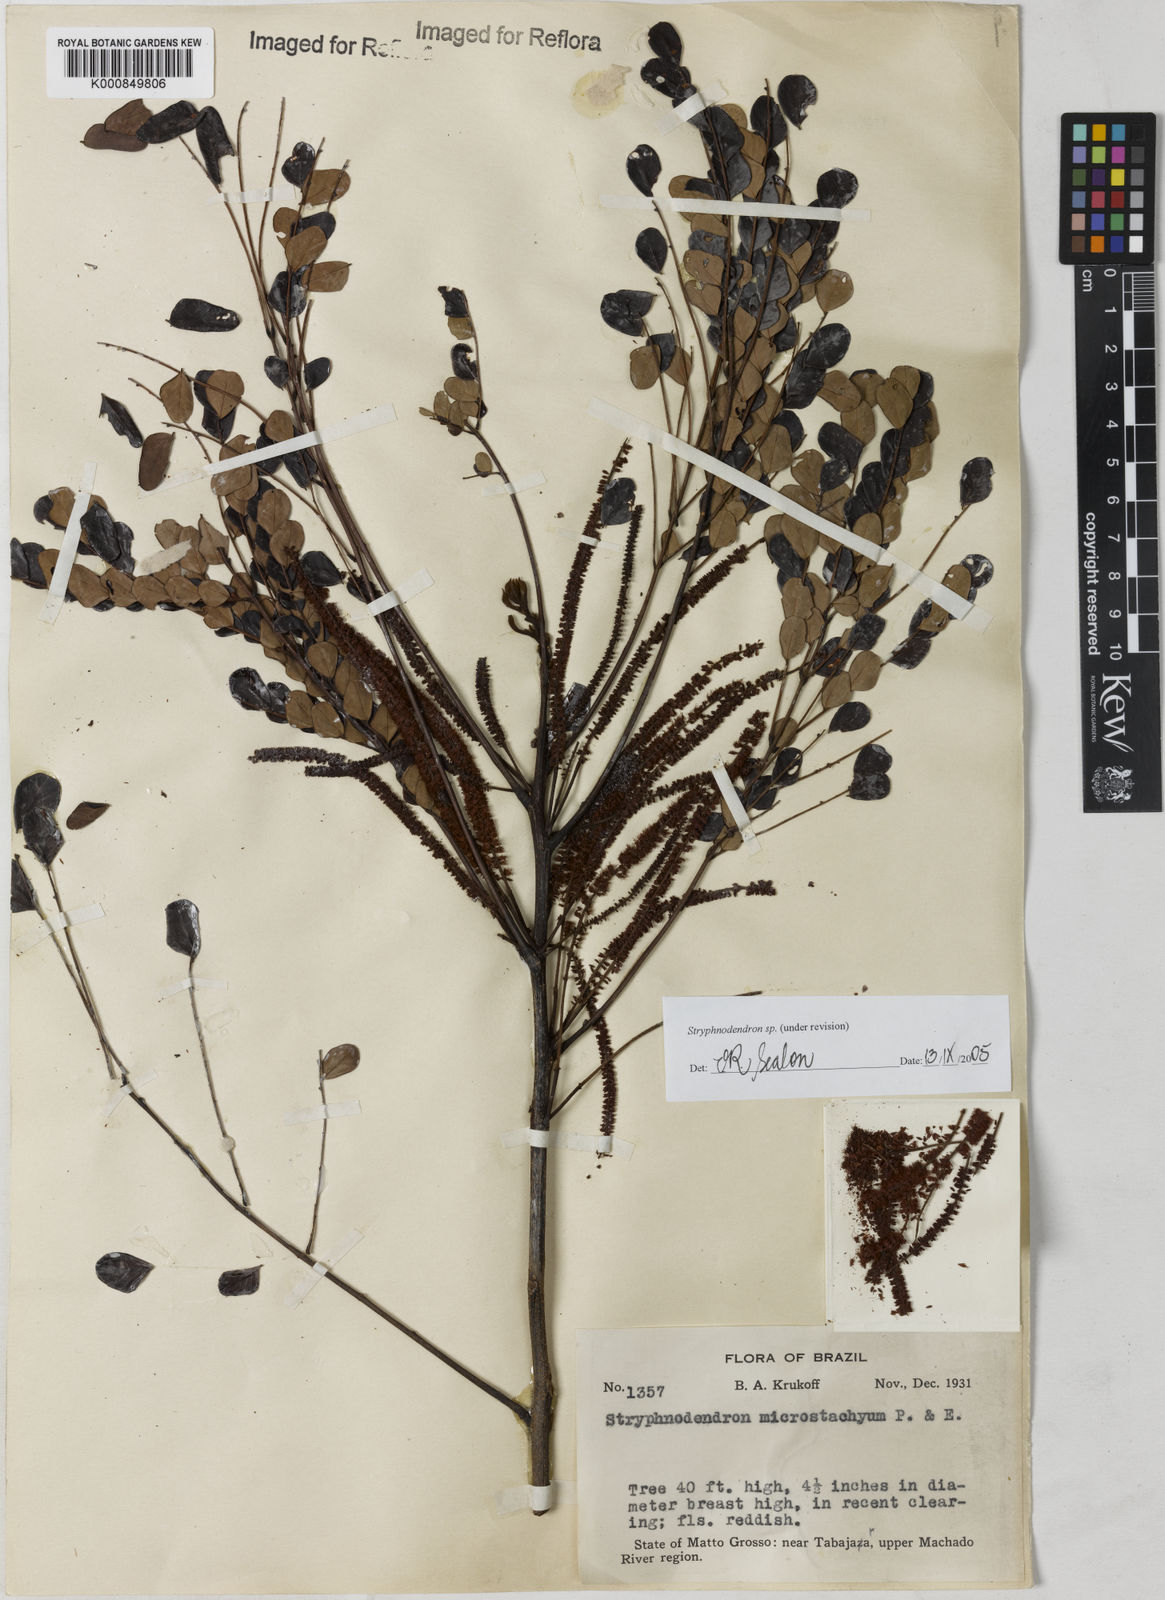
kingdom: Plantae
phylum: Tracheophyta
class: Magnoliopsida
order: Fabales
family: Fabaceae
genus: Stryphnodendron
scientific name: Stryphnodendron
